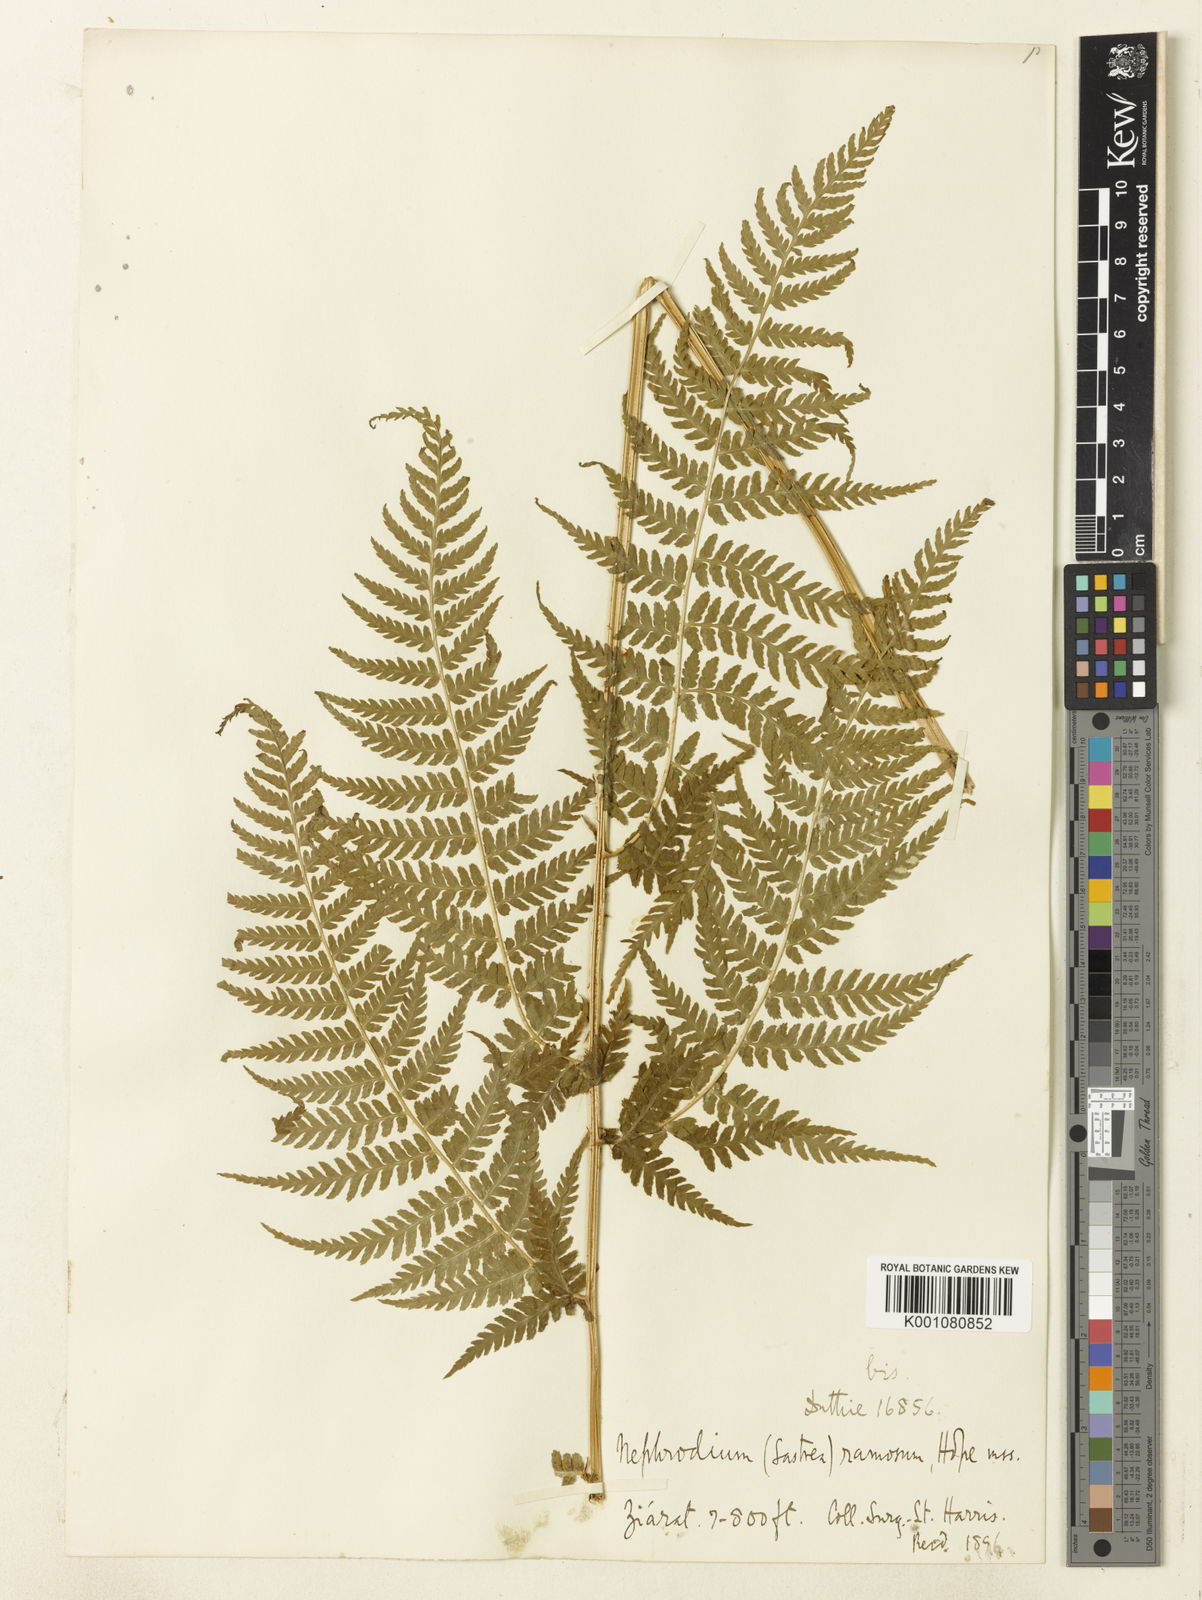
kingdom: Plantae
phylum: Tracheophyta
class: Polypodiopsida
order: Polypodiales
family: Dryopteridaceae
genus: Dryopteris
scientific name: Dryopteris ramosa
